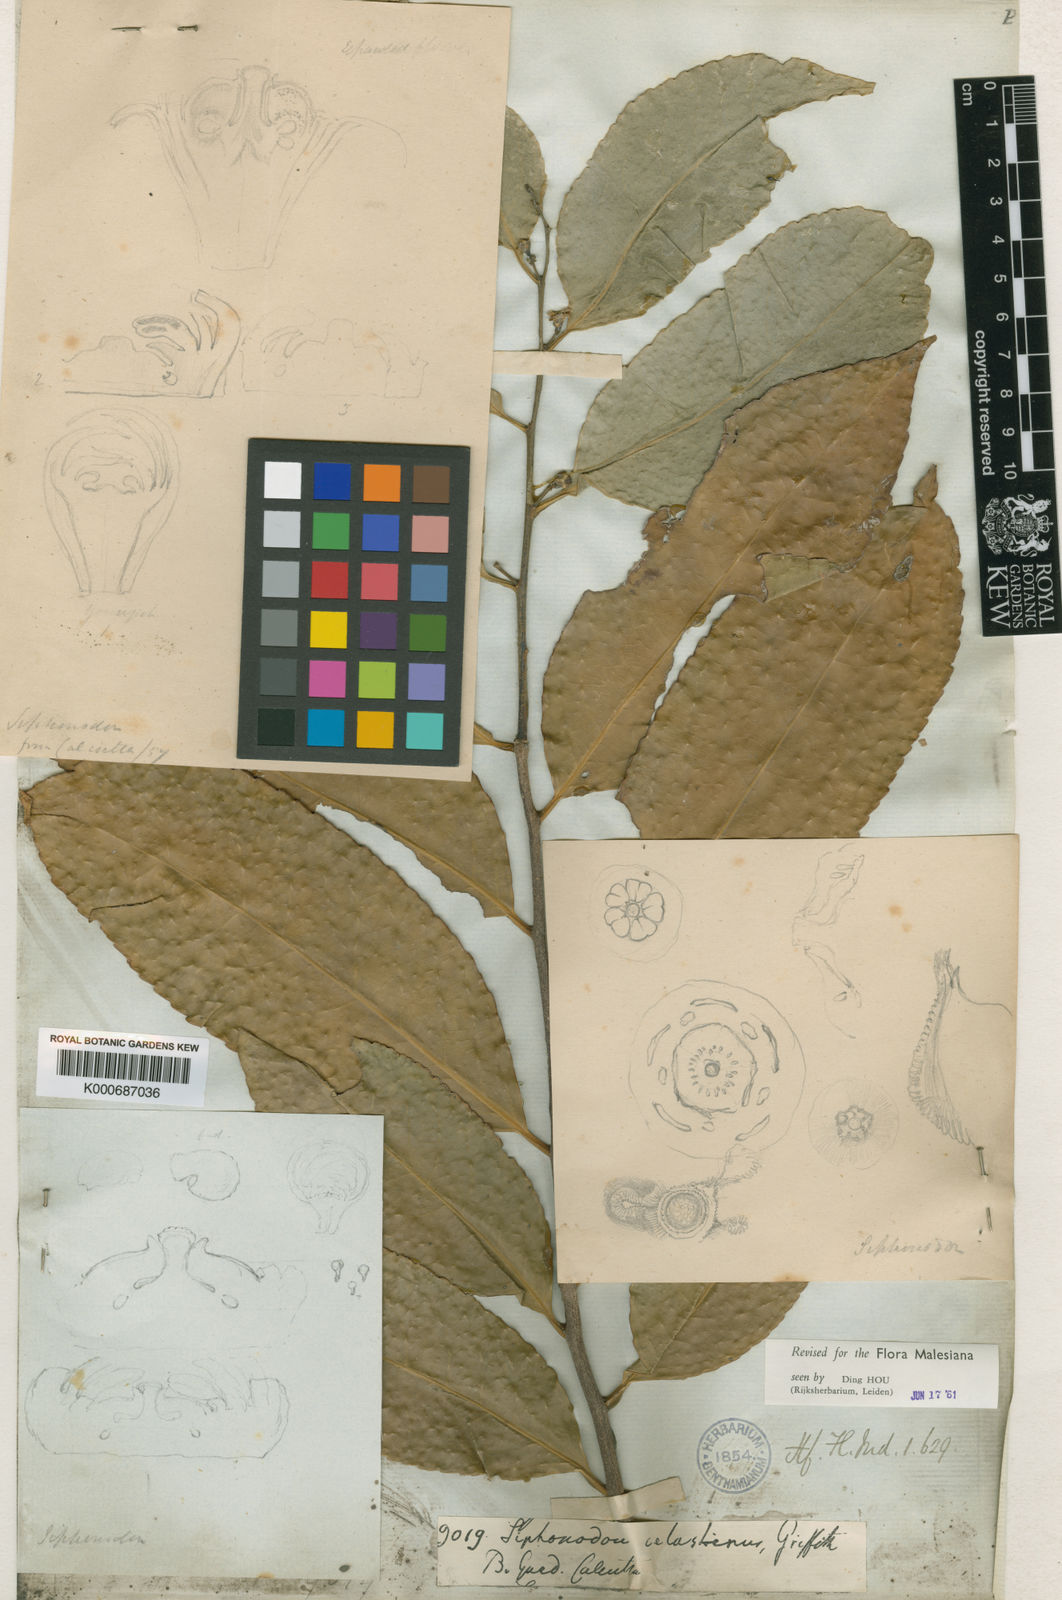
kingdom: Plantae
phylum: Tracheophyta
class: Magnoliopsida
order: Celastrales
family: Celastraceae
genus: Siphonodon
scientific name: Siphonodon celastrineus
